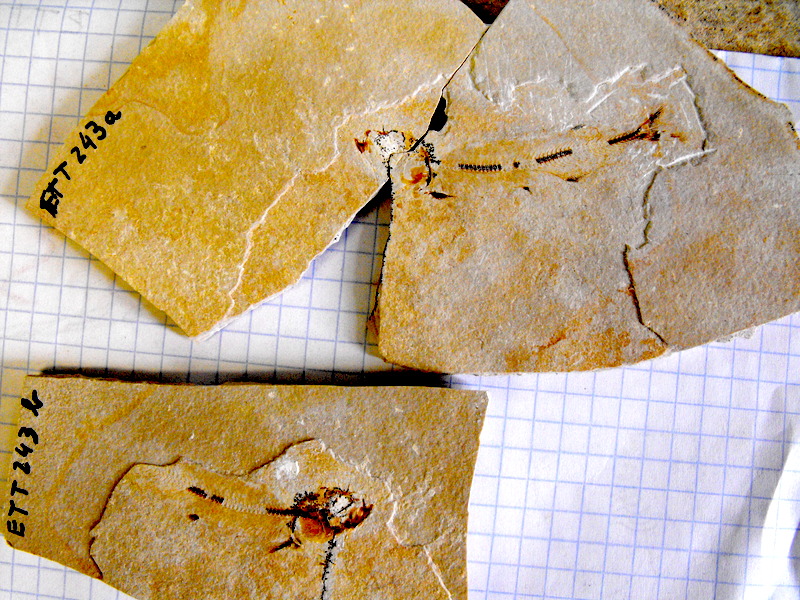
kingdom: Animalia
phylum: Chordata
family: Allothrissopidae
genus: Allothrissops
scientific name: Allothrissops mesogaster
